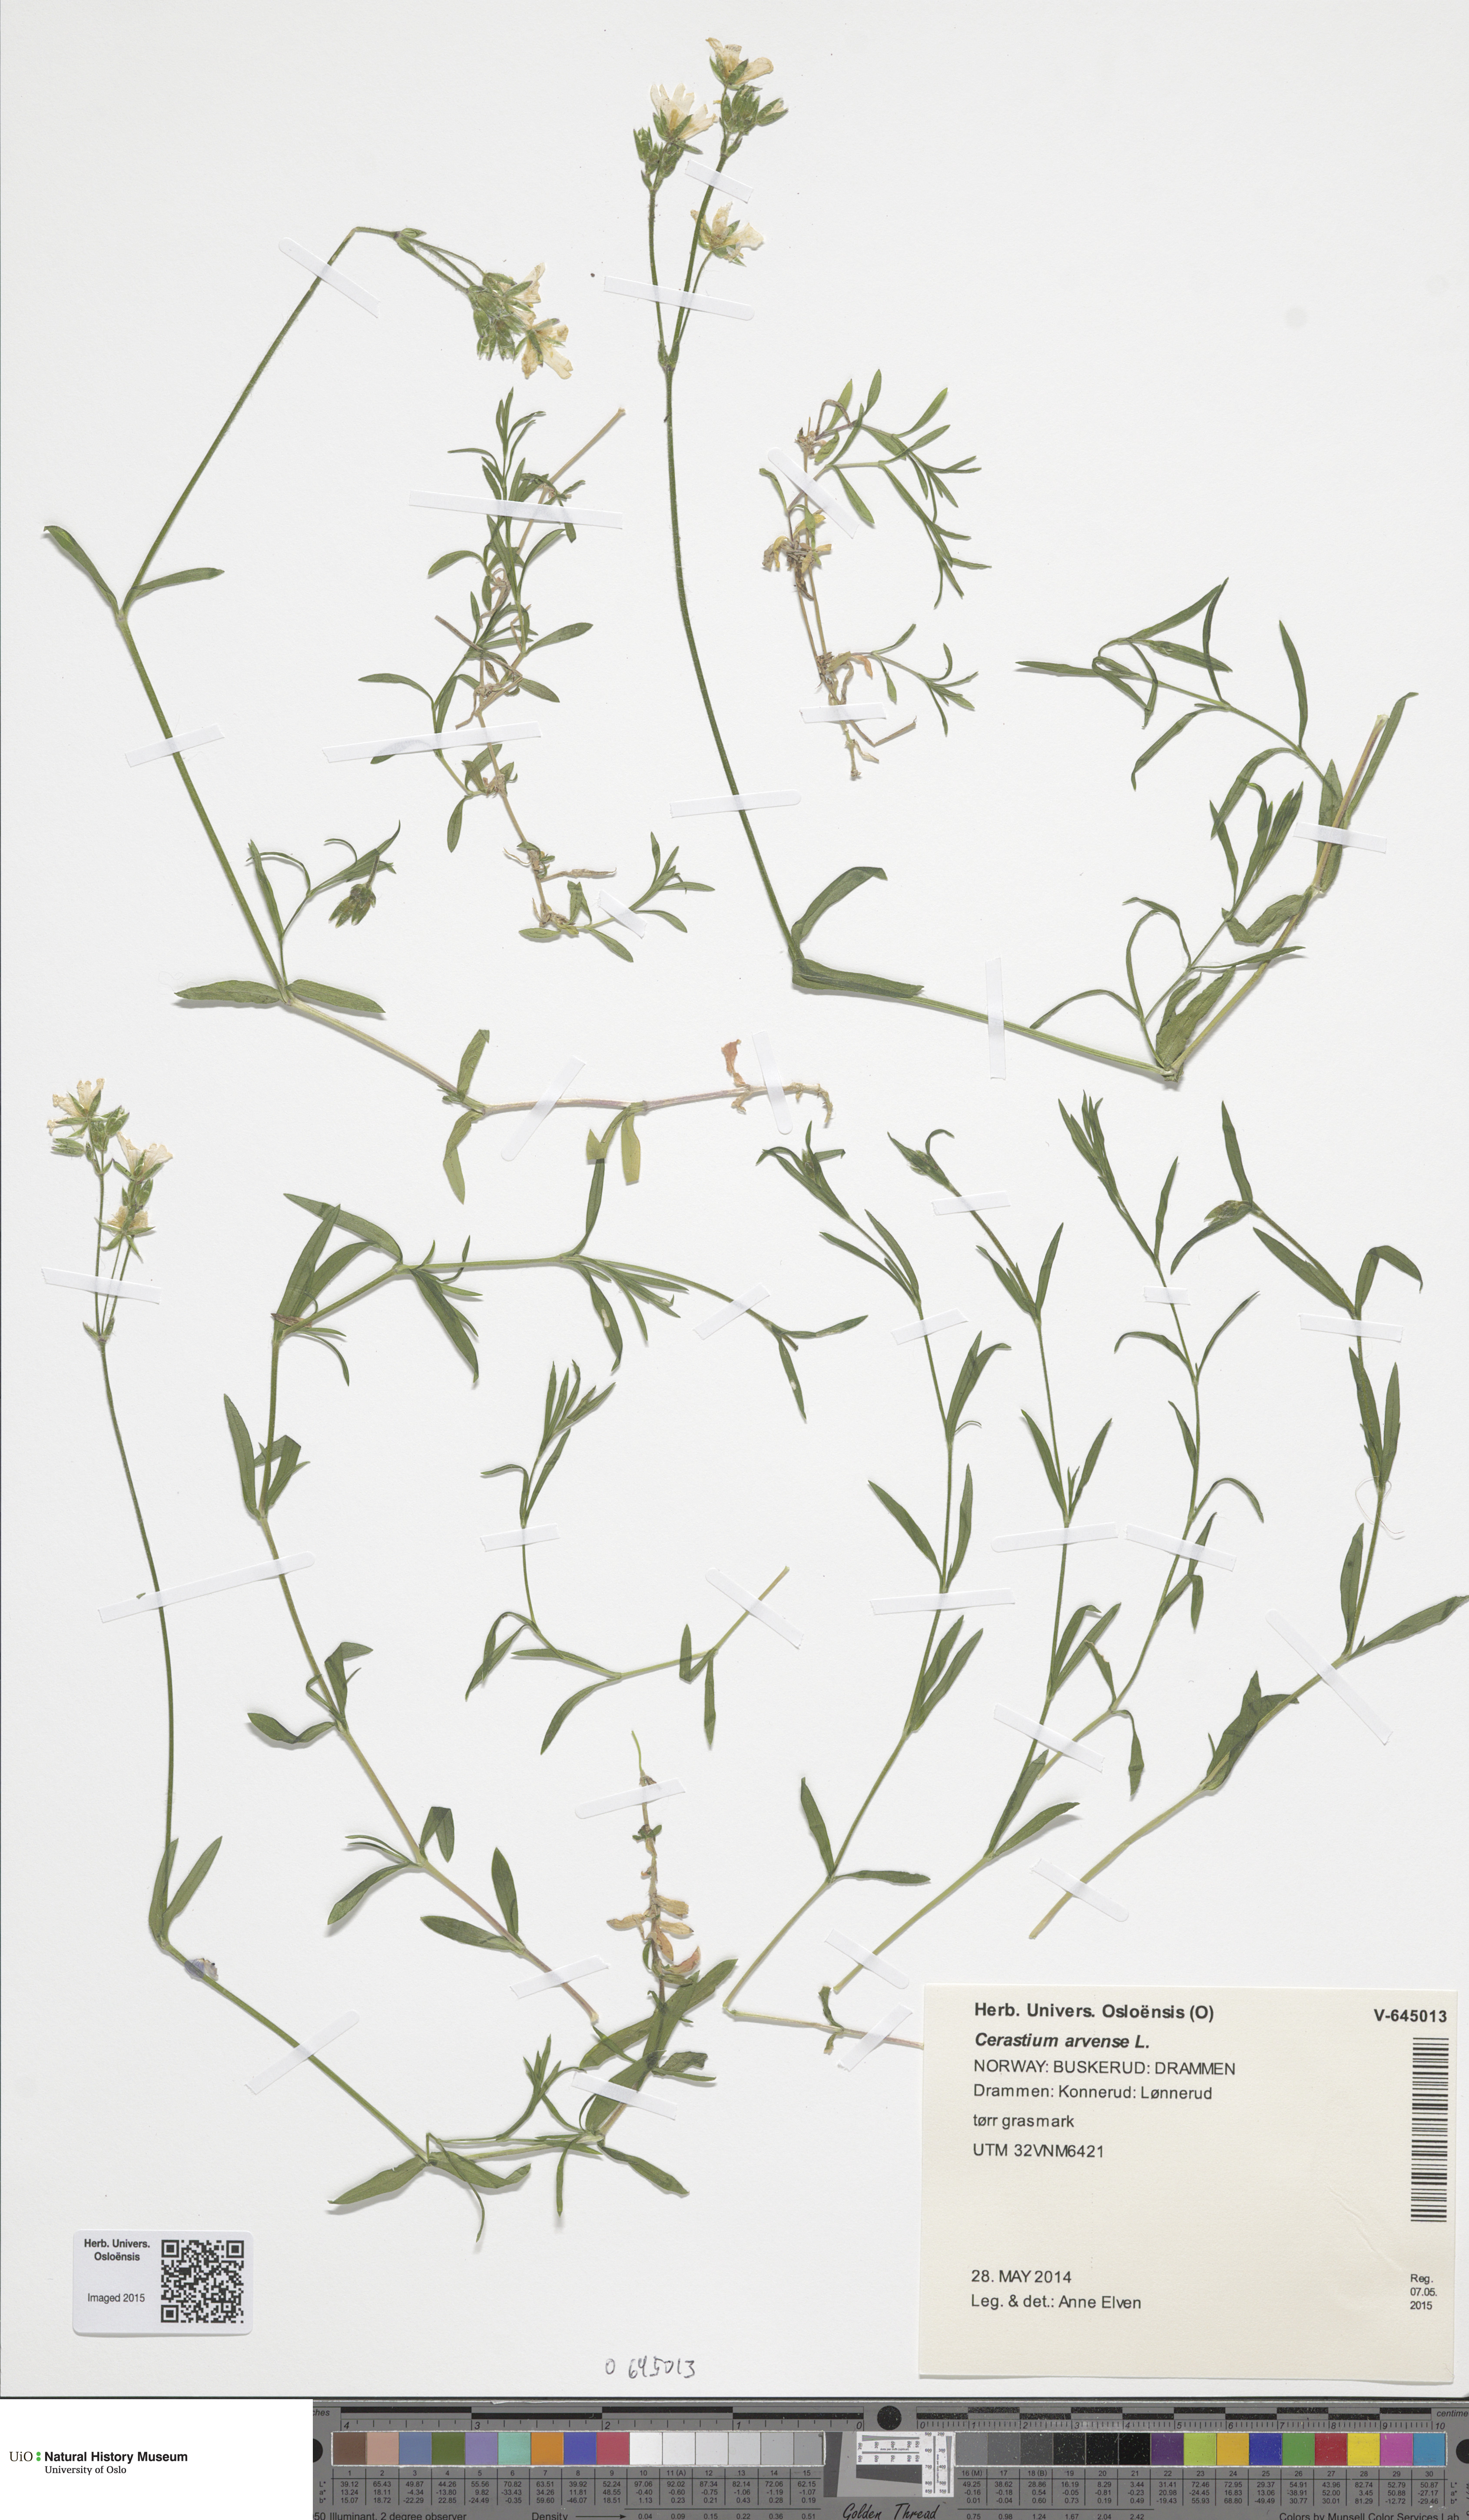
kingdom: Plantae
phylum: Tracheophyta
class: Magnoliopsida
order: Caryophyllales
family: Caryophyllaceae
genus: Cerastium
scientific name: Cerastium arvense
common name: Field mouse-ear
